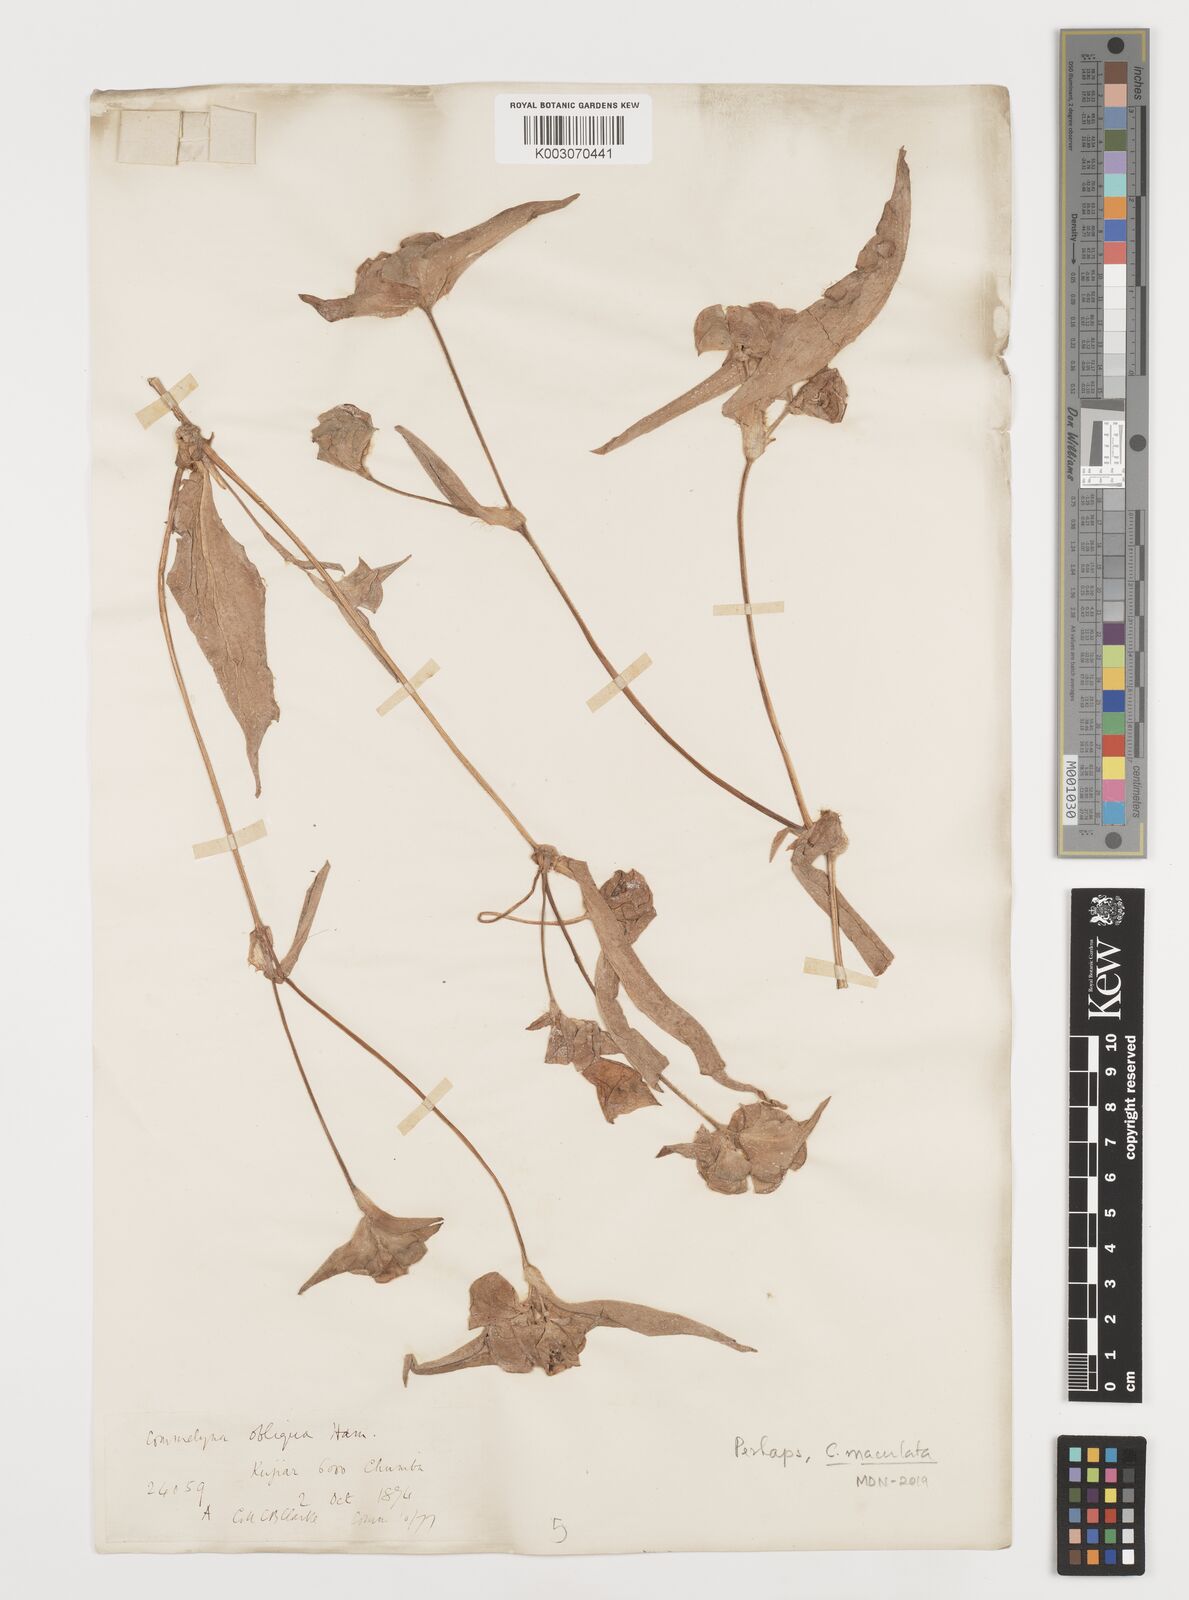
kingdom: Plantae
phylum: Tracheophyta
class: Liliopsida
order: Commelinales
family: Commelinaceae
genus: Commelina
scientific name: Commelina maculata
